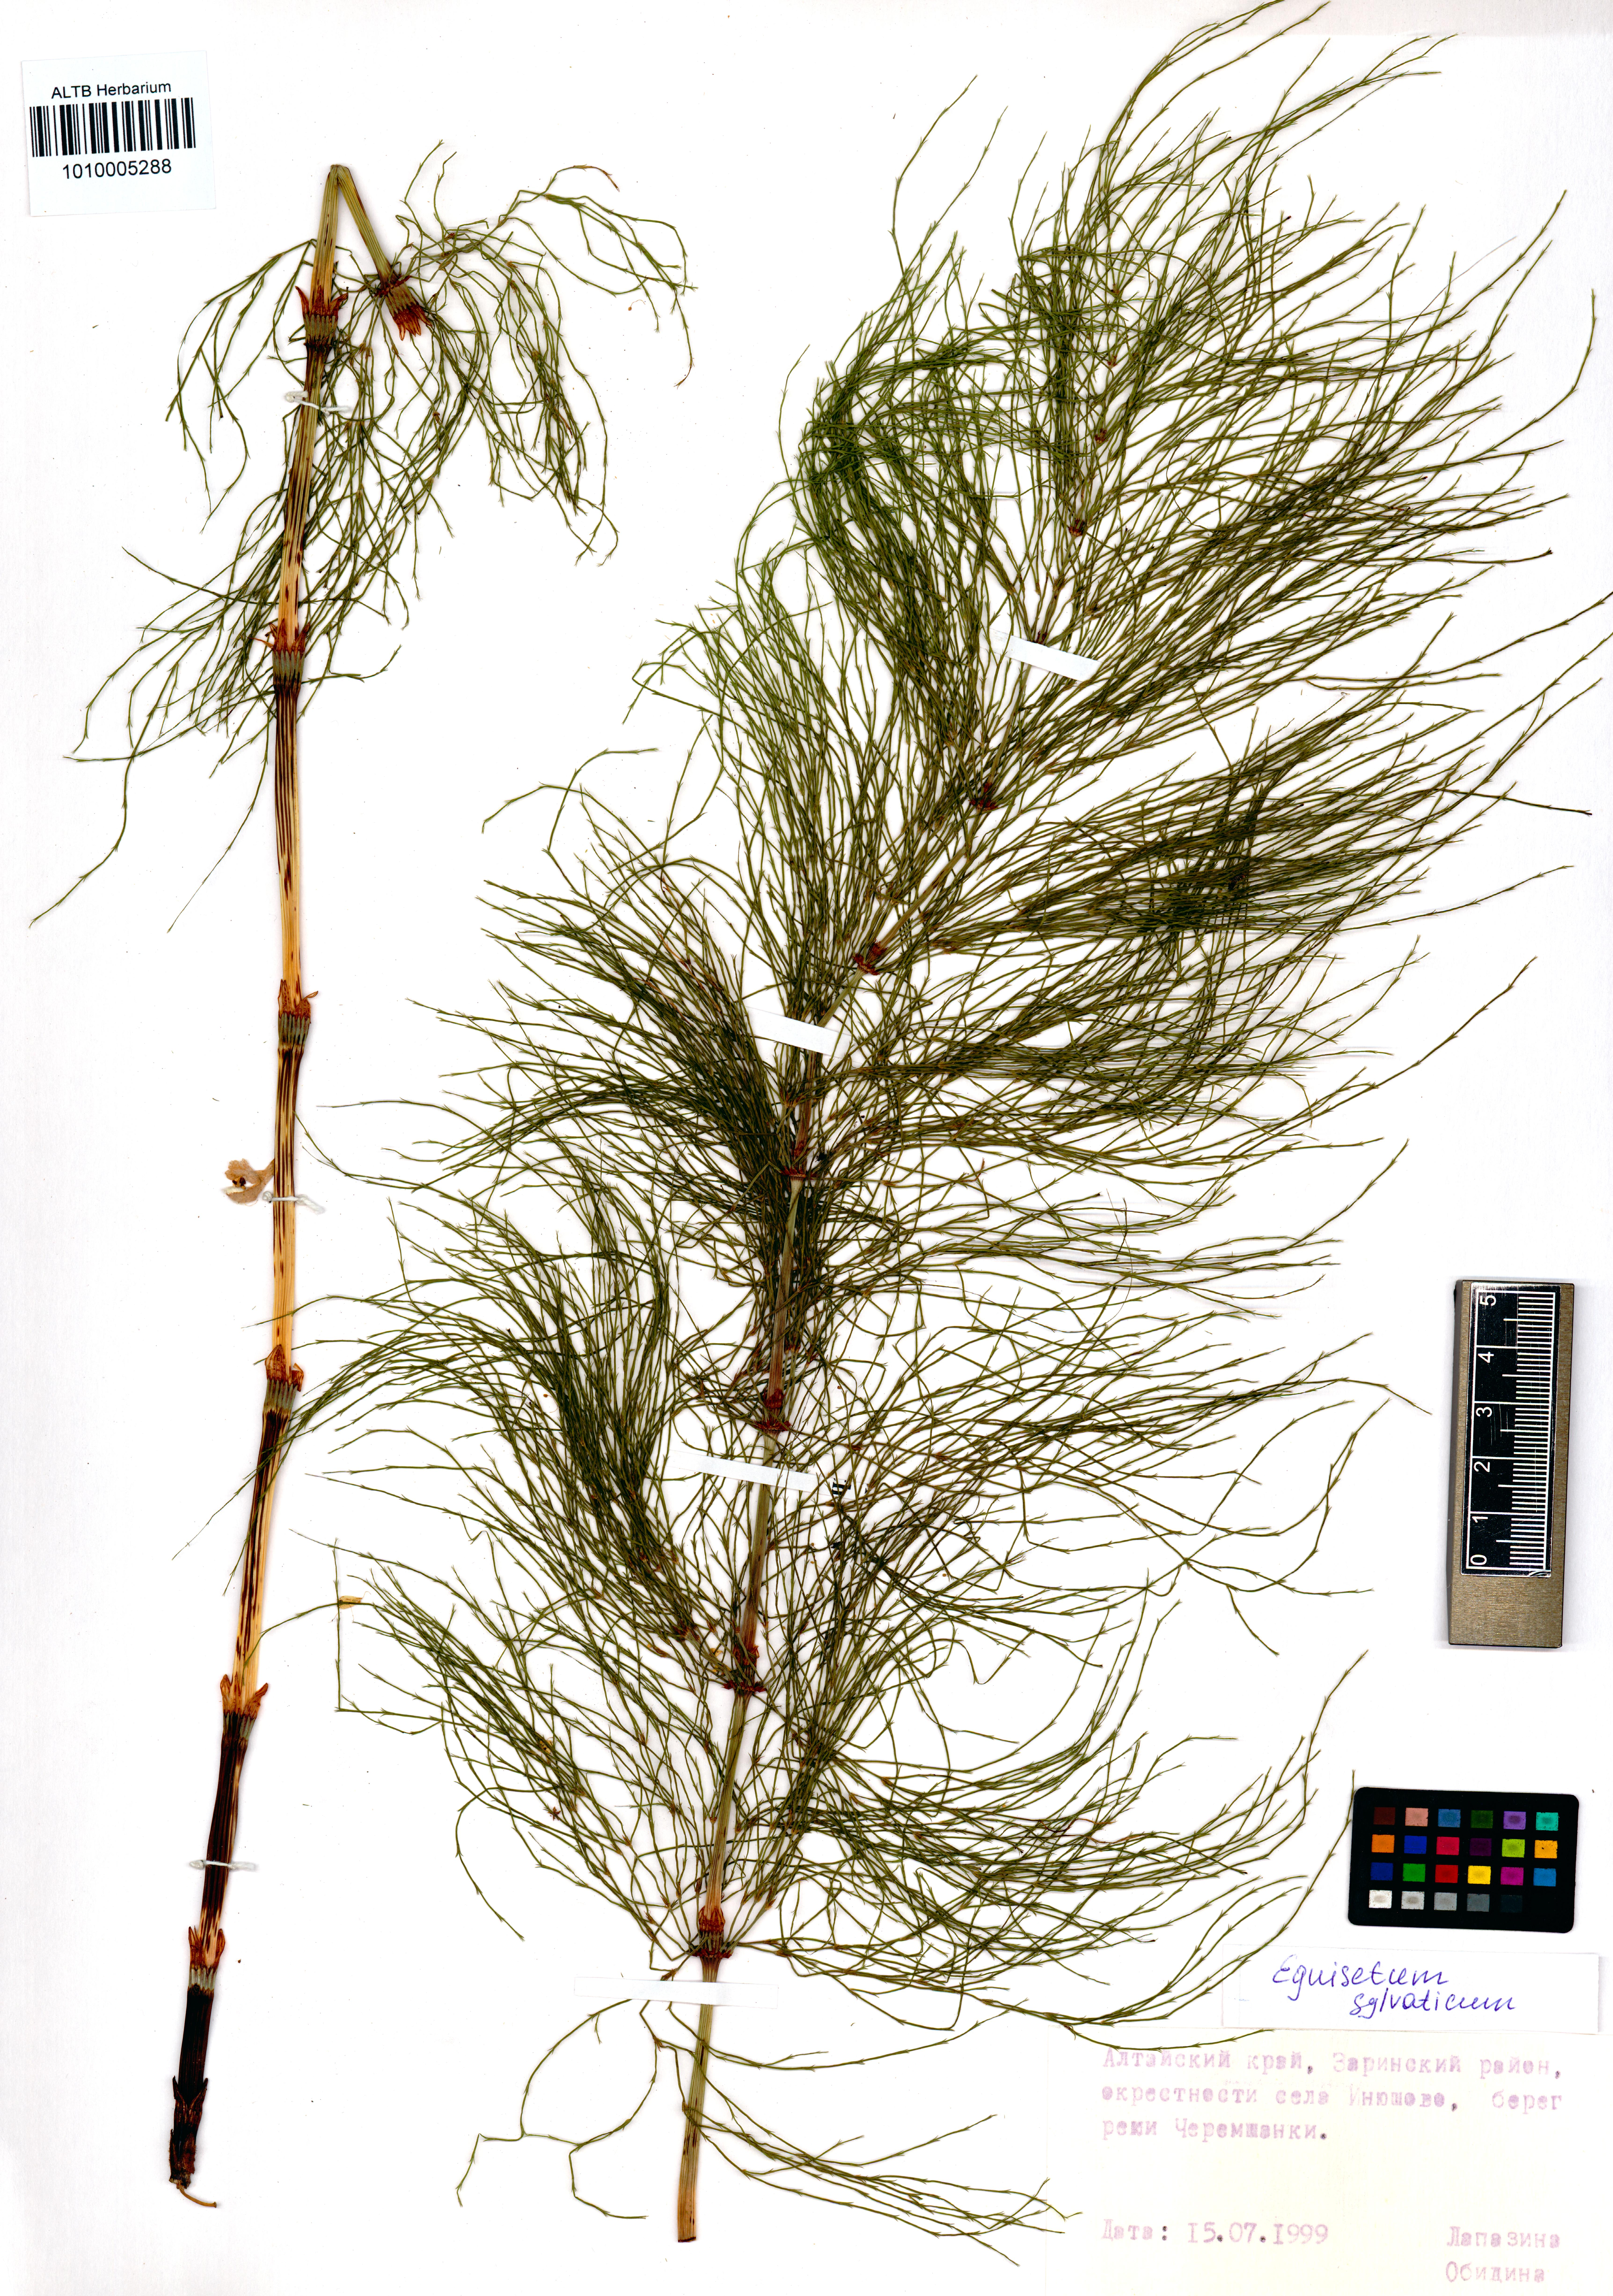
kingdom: Plantae
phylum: Tracheophyta
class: Polypodiopsida
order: Equisetales
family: Equisetaceae
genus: Equisetum
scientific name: Equisetum sylvaticum
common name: Wood horsetail
